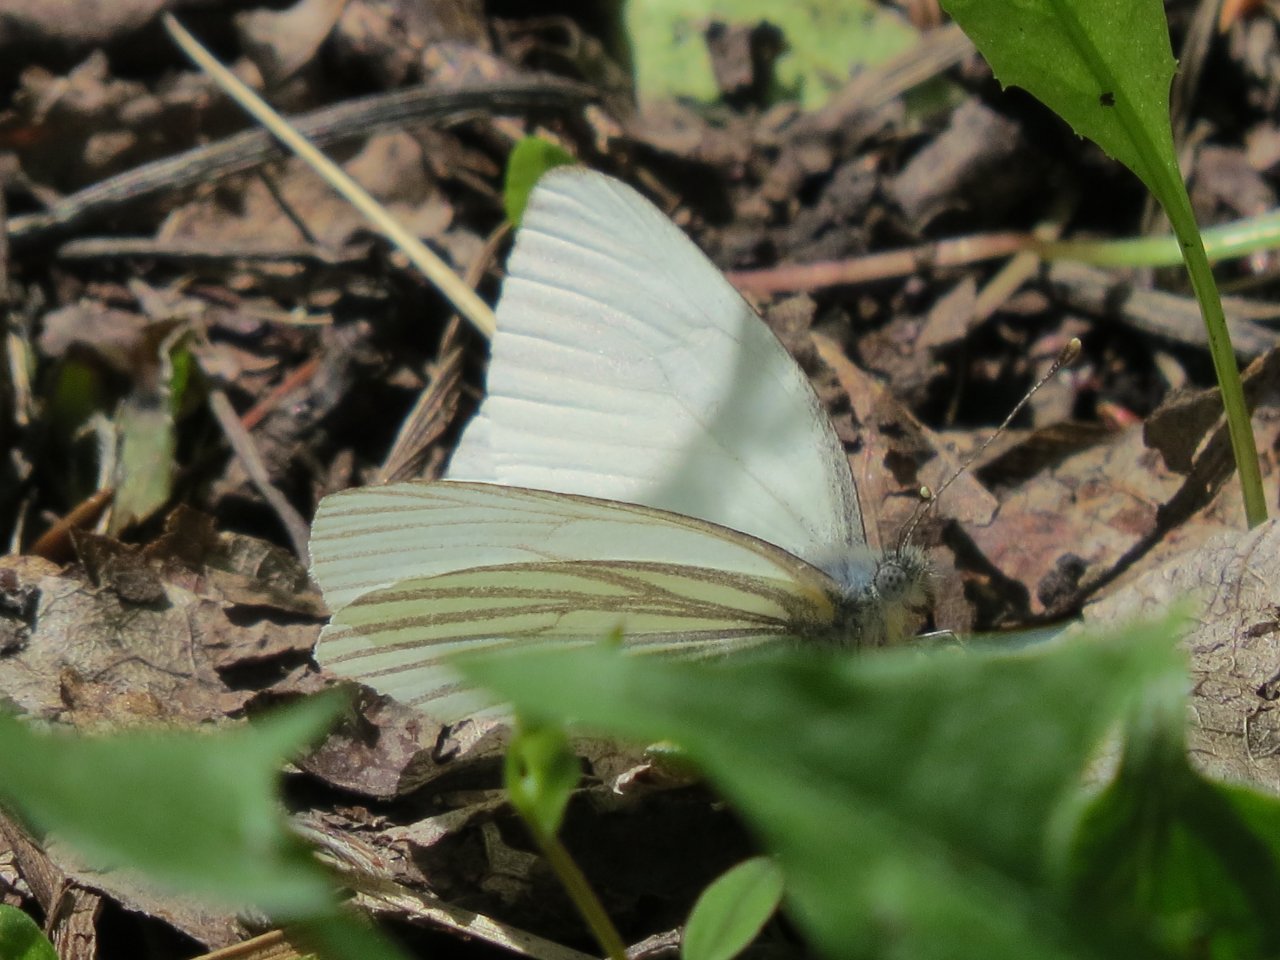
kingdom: Animalia
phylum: Arthropoda
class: Insecta
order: Lepidoptera
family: Pieridae
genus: Pieris
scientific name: Pieris oleracea
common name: Mustard White
